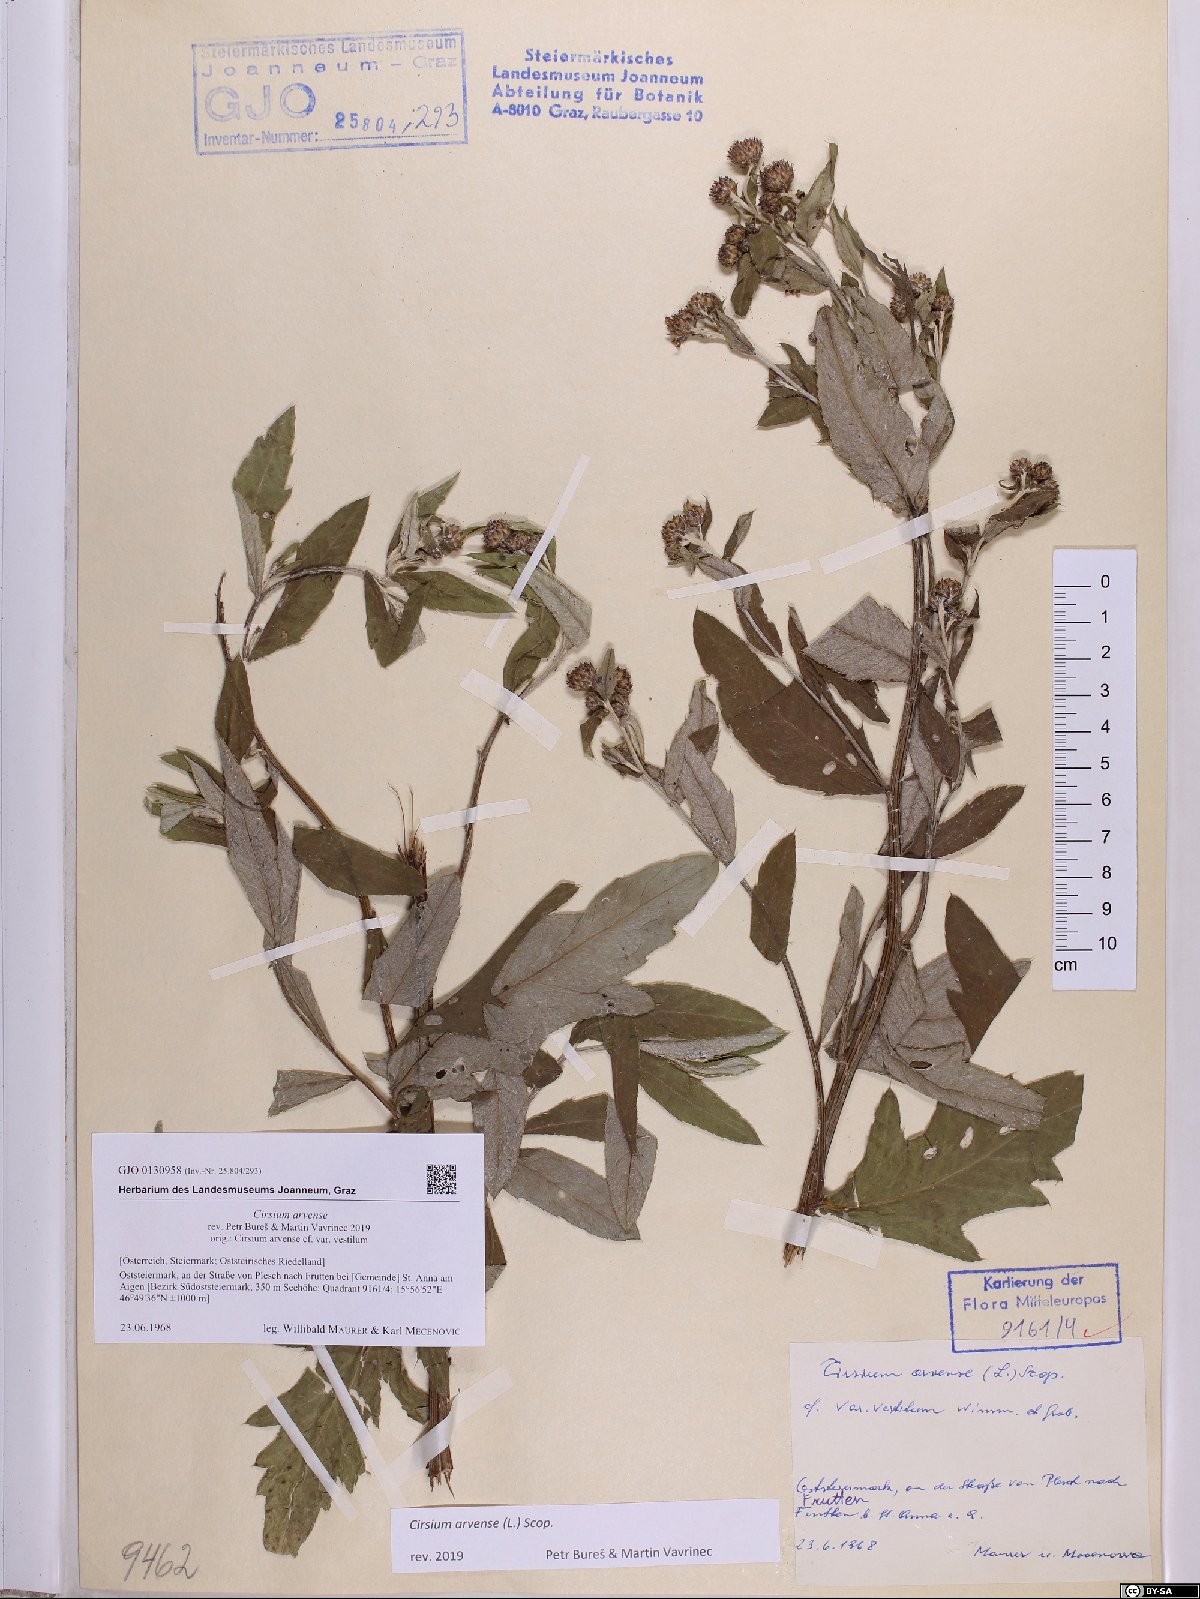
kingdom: Plantae
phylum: Tracheophyta
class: Magnoliopsida
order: Asterales
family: Asteraceae
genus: Cirsium
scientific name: Cirsium arvense
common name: Creeping thistle
